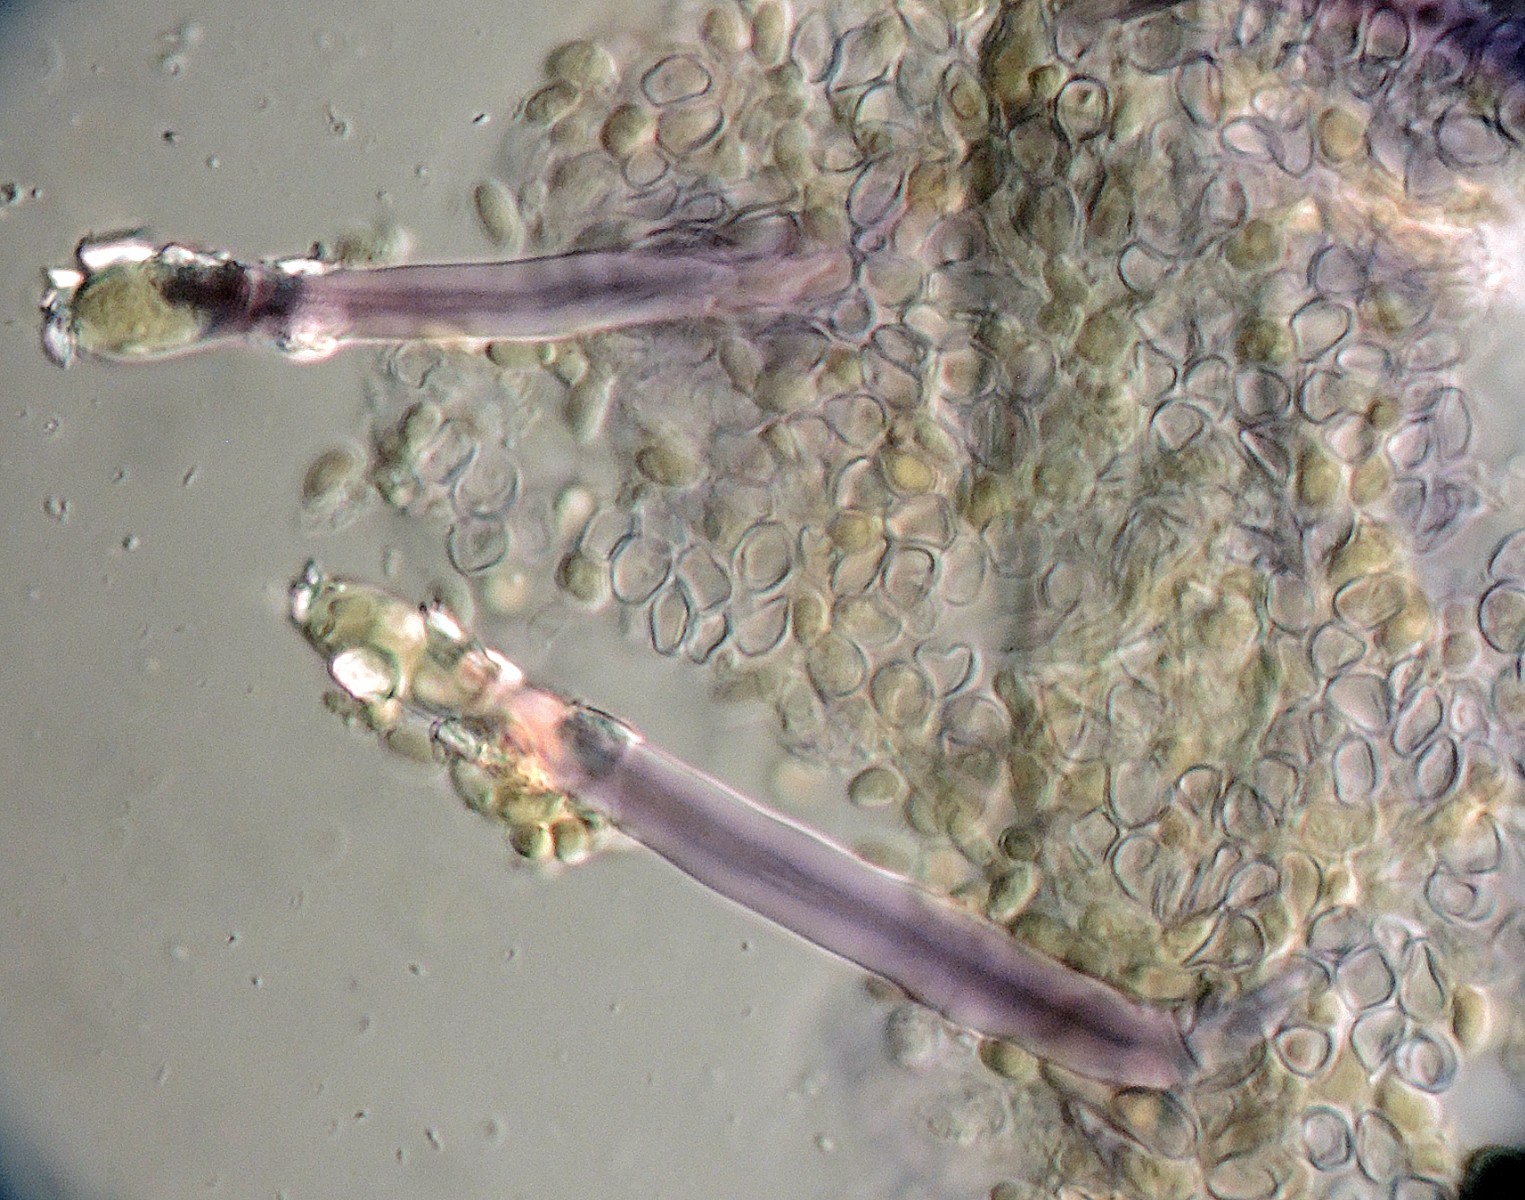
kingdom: Fungi
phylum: Basidiomycota
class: Agaricomycetes
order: Hymenochaetales
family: Hymenochaetaceae
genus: Tubulicrinis
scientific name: Tubulicrinis borealis
